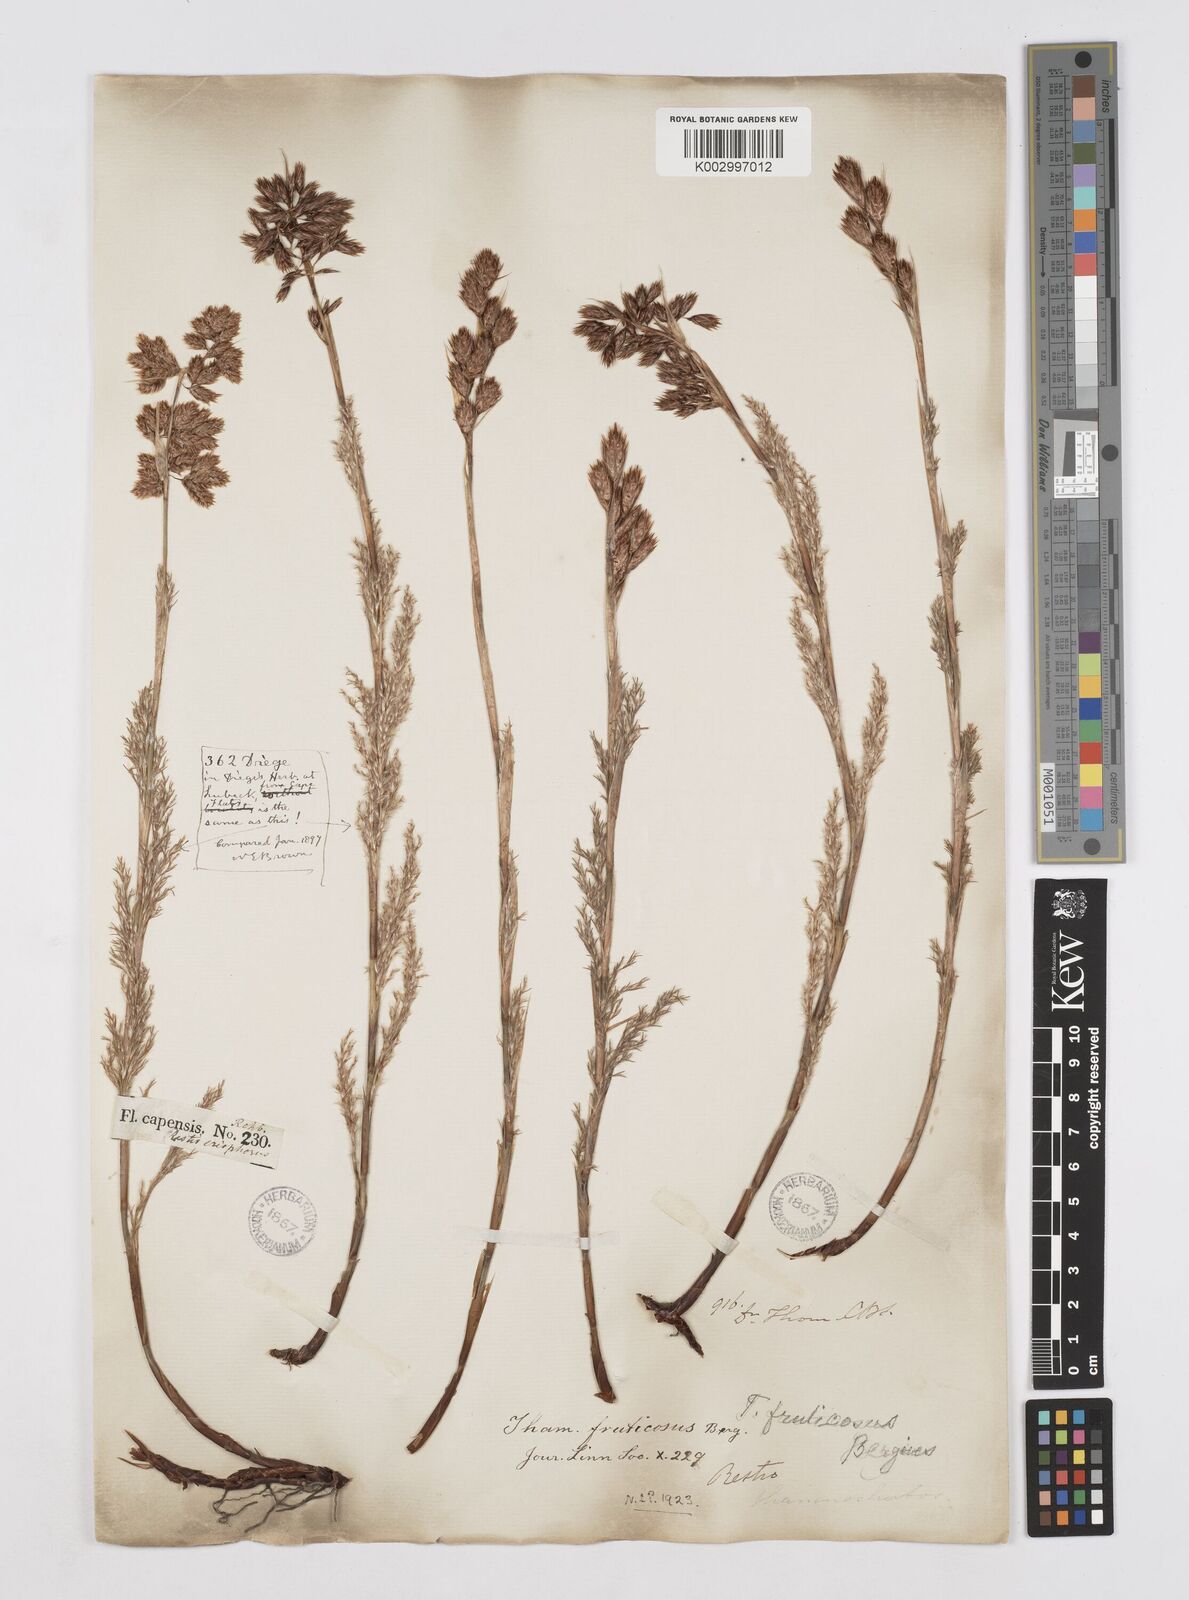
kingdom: Plantae
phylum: Tracheophyta
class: Liliopsida
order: Poales
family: Restionaceae
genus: Thamnochortus
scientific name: Thamnochortus fruticosus
